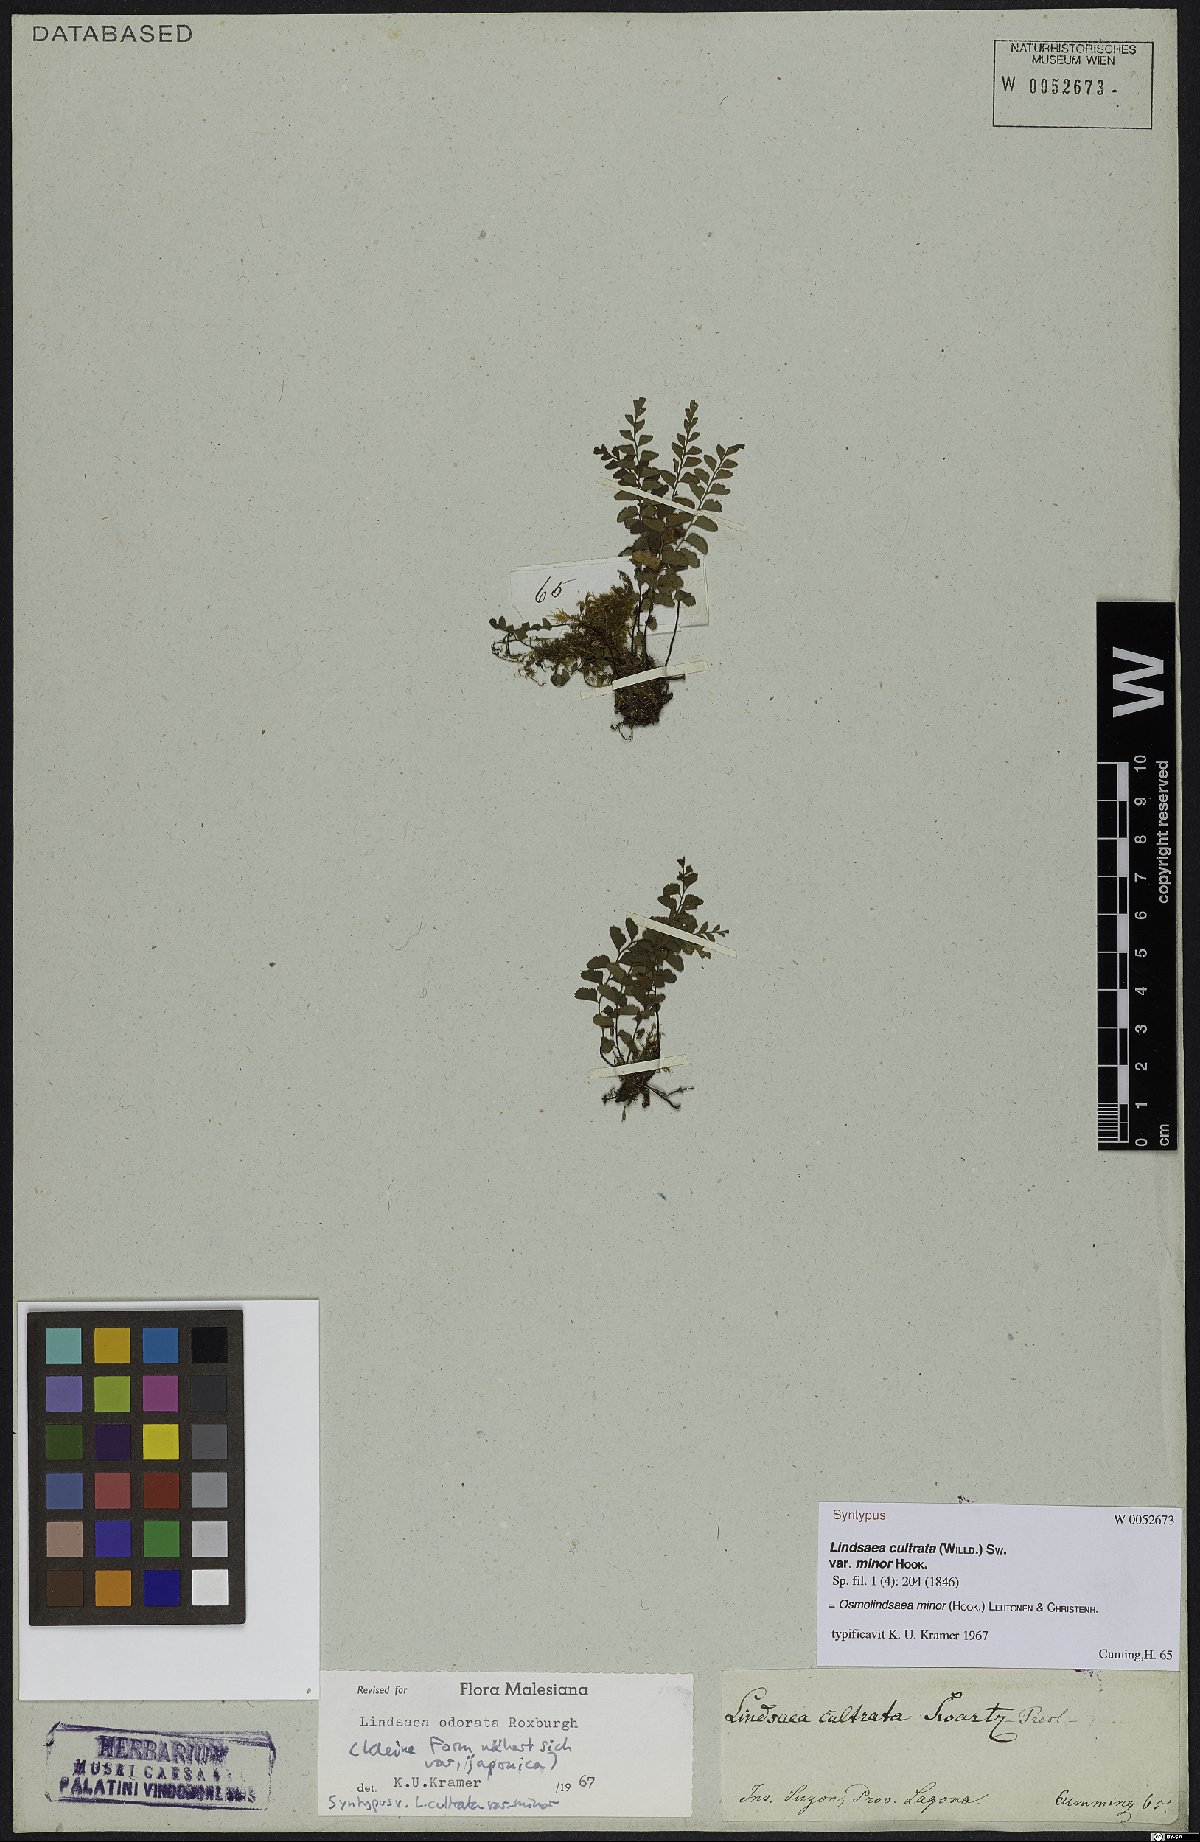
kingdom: Plantae
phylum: Tracheophyta
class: Polypodiopsida
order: Polypodiales
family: Lindsaeaceae
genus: Osmolindsaea
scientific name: Osmolindsaea minor
